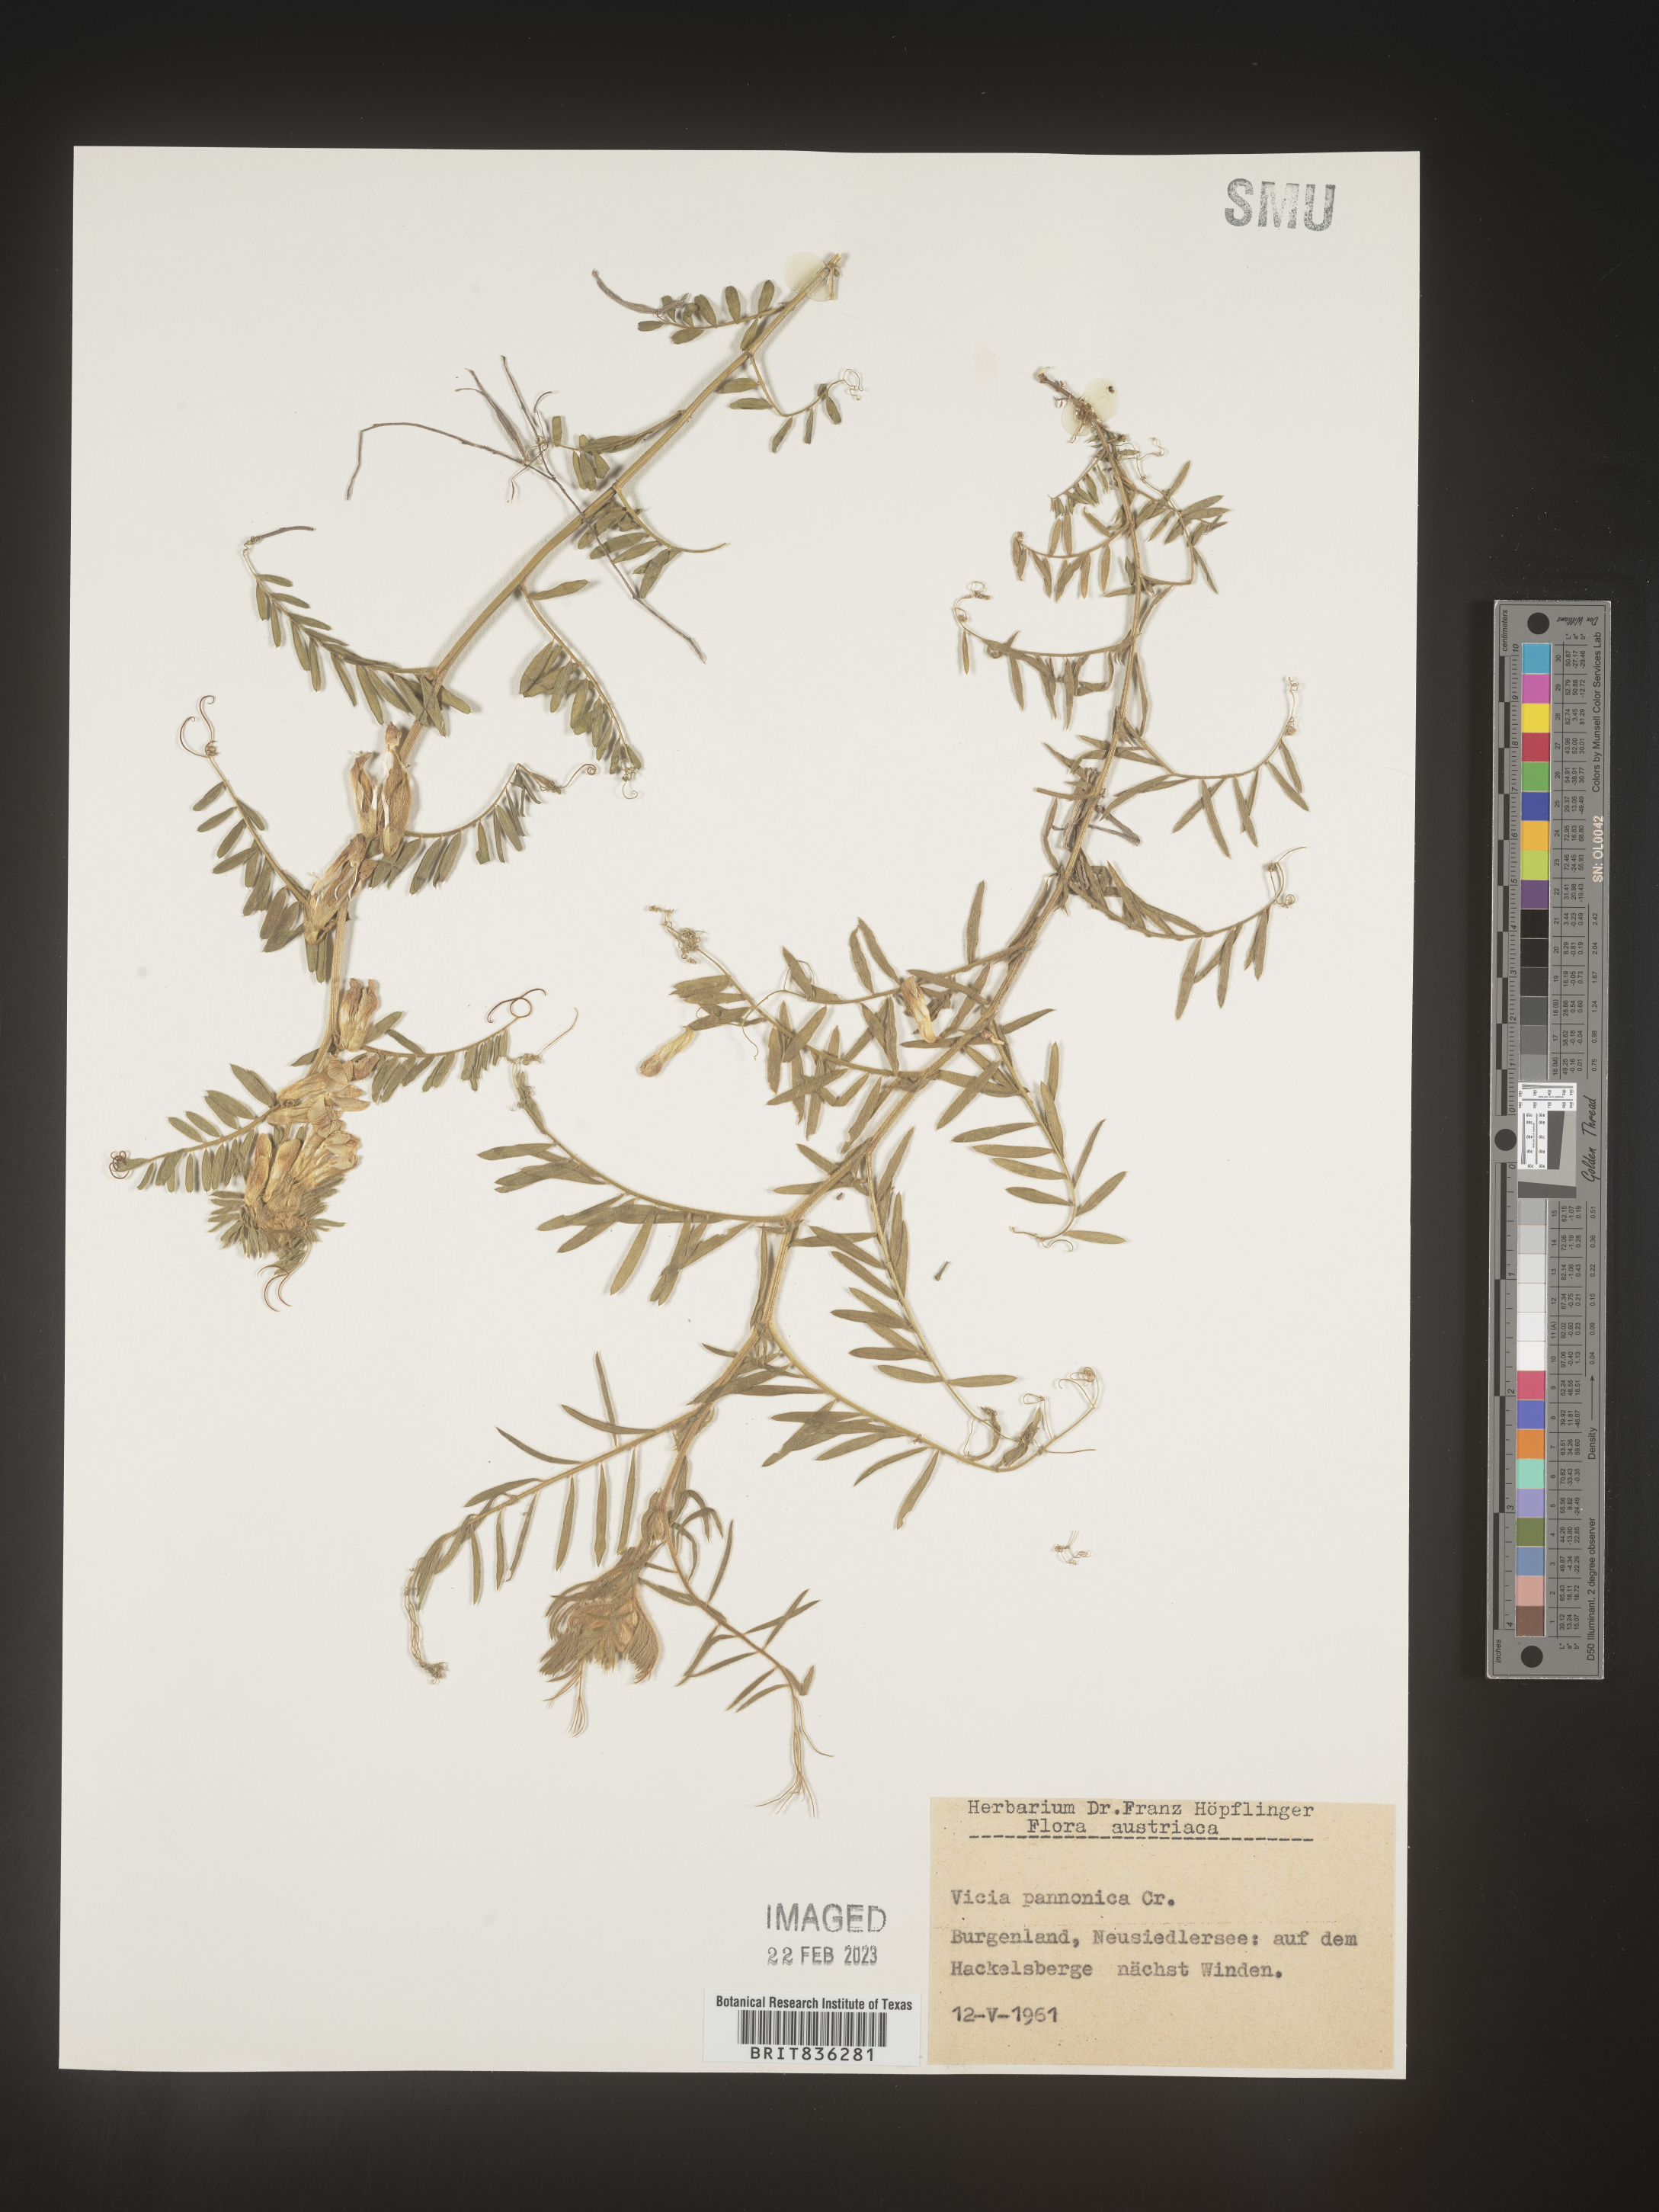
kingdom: Plantae
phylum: Tracheophyta
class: Magnoliopsida
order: Fabales
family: Fabaceae
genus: Vicia
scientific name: Vicia
